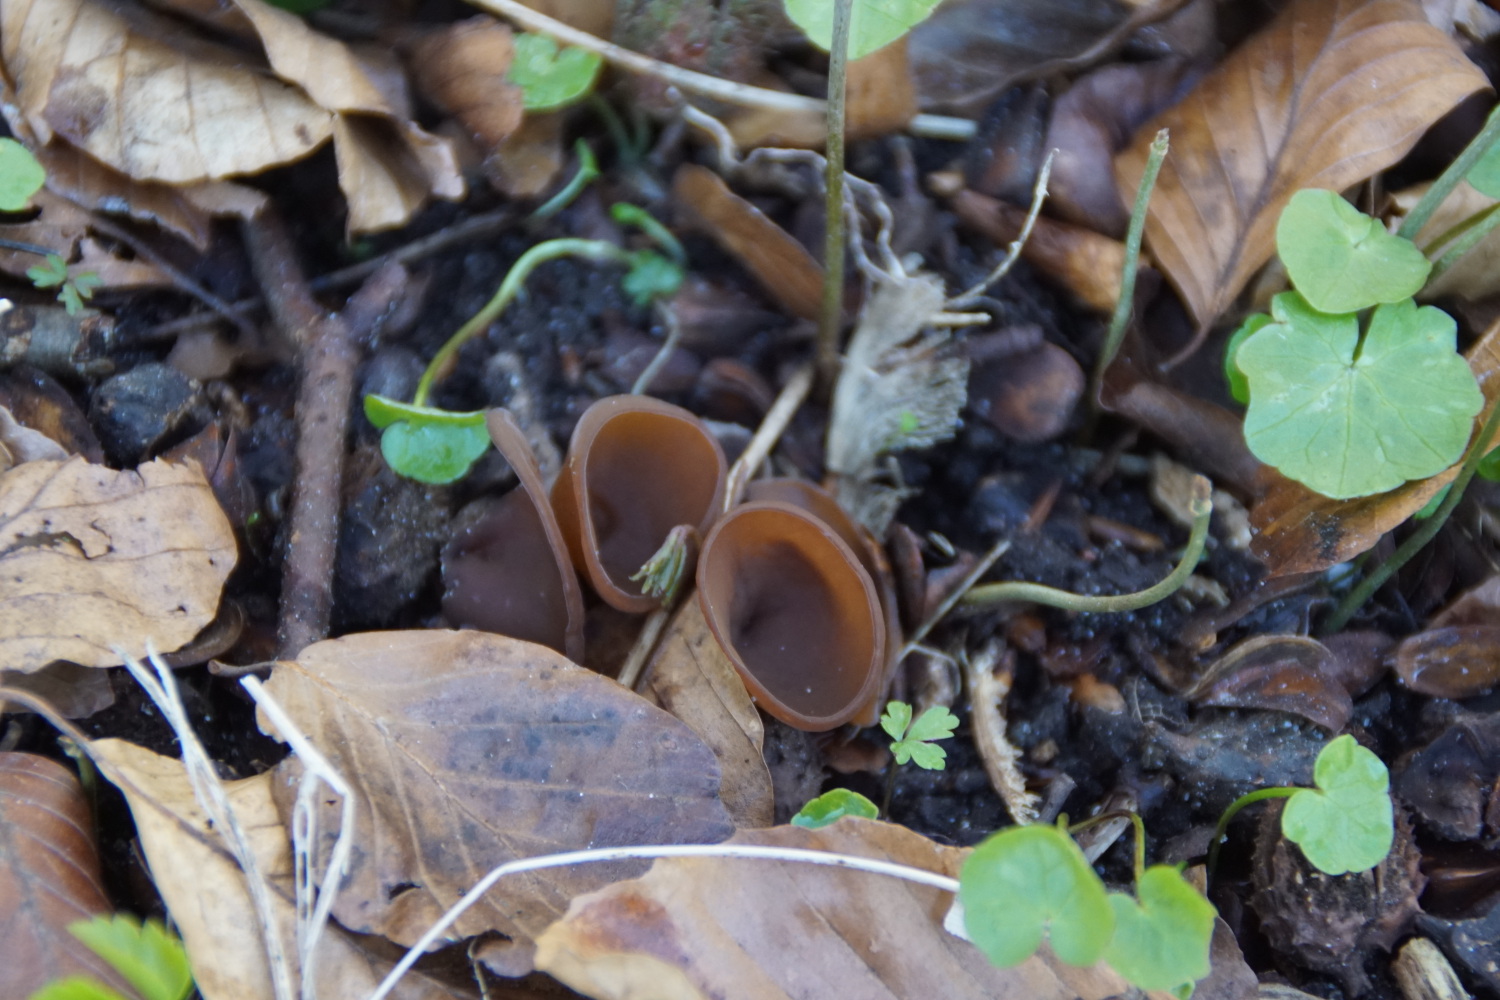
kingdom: Fungi
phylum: Ascomycota
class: Leotiomycetes
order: Helotiales
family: Sclerotiniaceae
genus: Dumontinia
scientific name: Dumontinia tuberosa
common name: anemone-knoldskive
